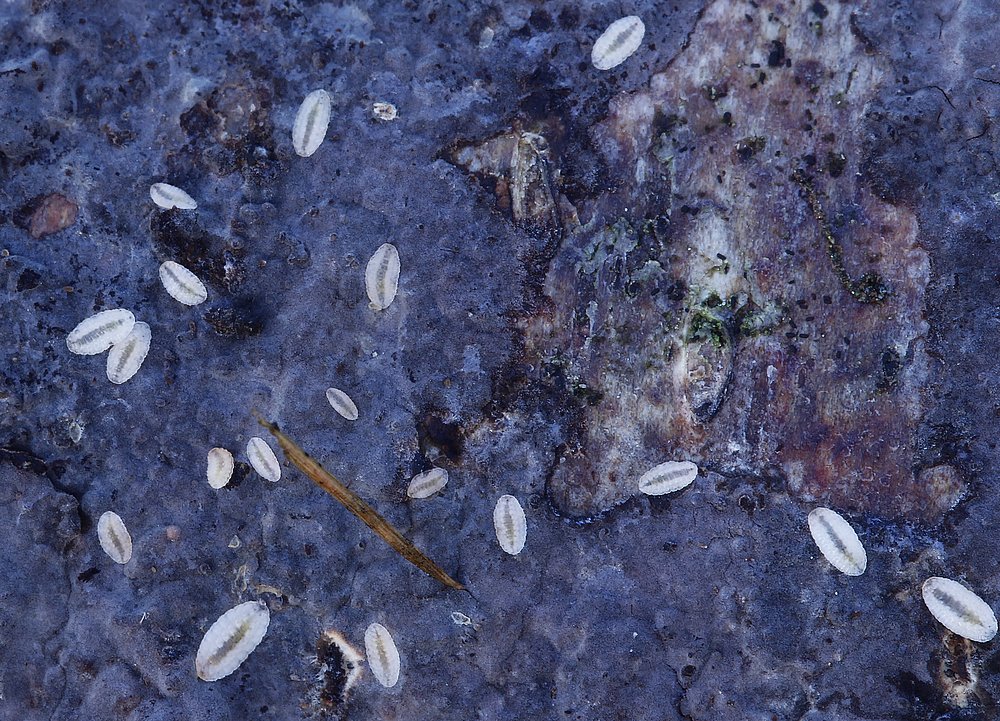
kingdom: Fungi
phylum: Basidiomycota
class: Agaricomycetes
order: Corticiales
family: Corticiaceae
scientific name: Corticiaceae
